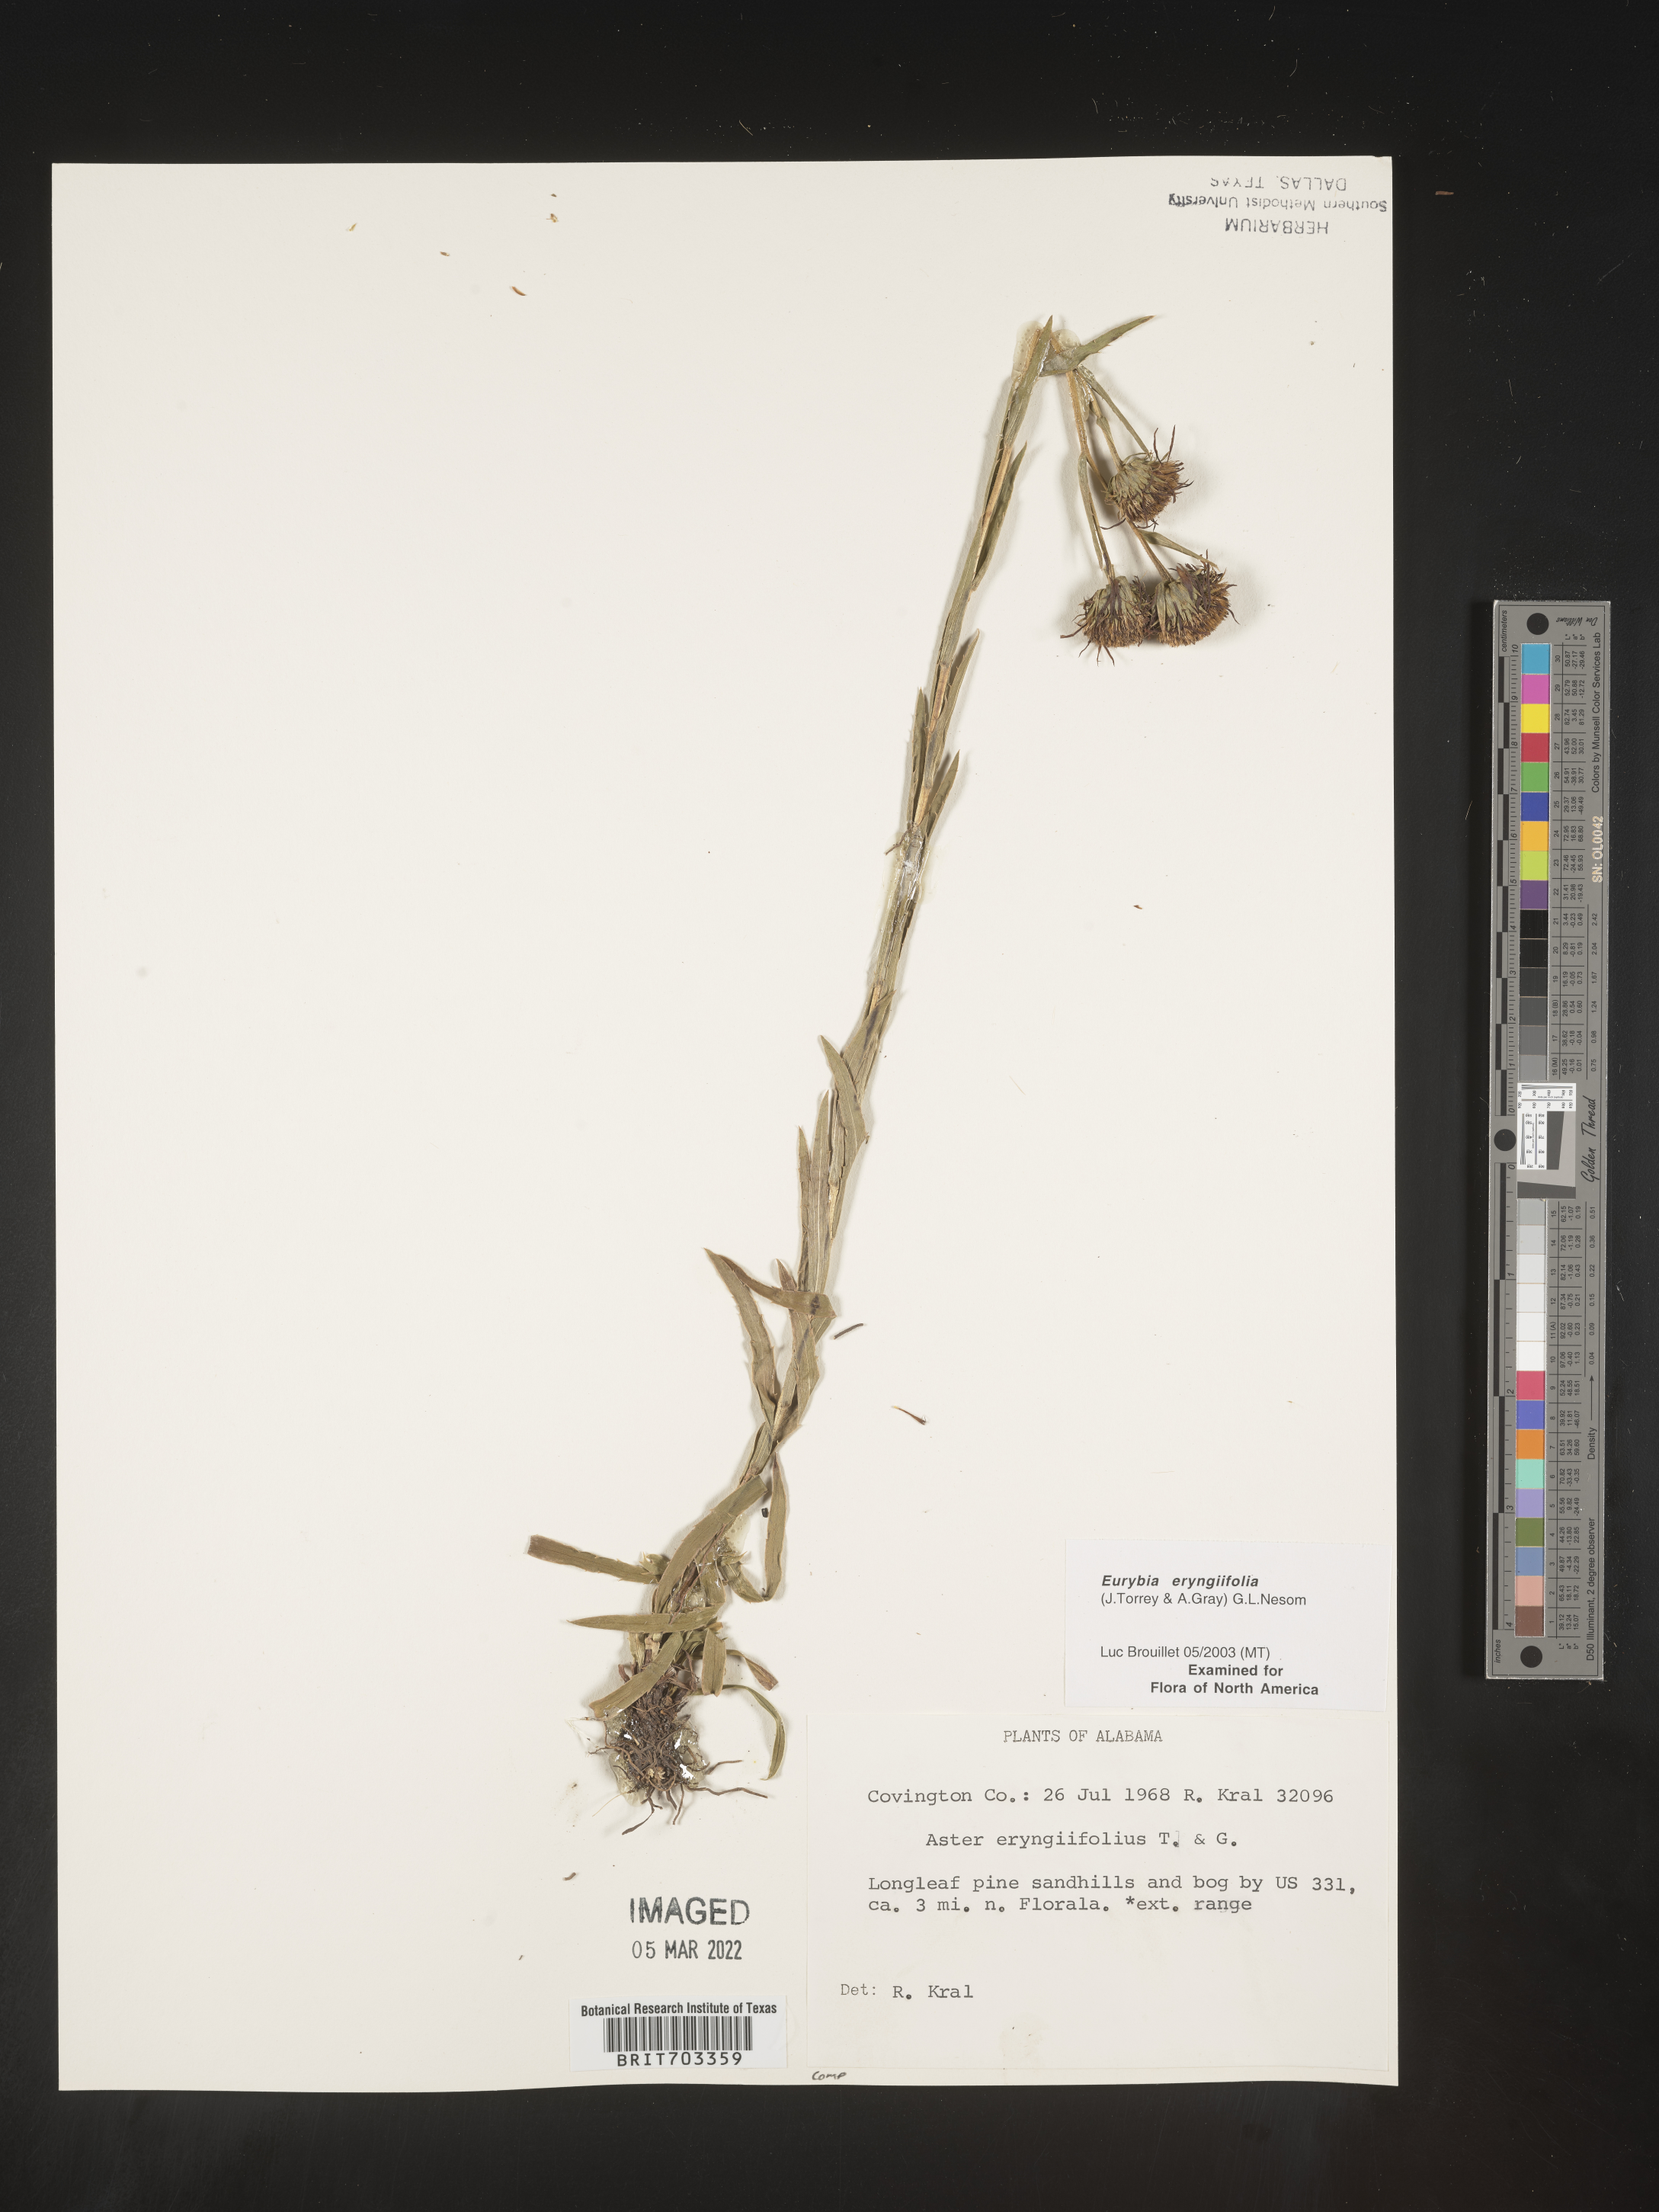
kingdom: Plantae
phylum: Tracheophyta
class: Magnoliopsida
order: Asterales
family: Asteraceae
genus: Eurybia
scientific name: Eurybia eryngiifolia
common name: Thistle-leaf aster
